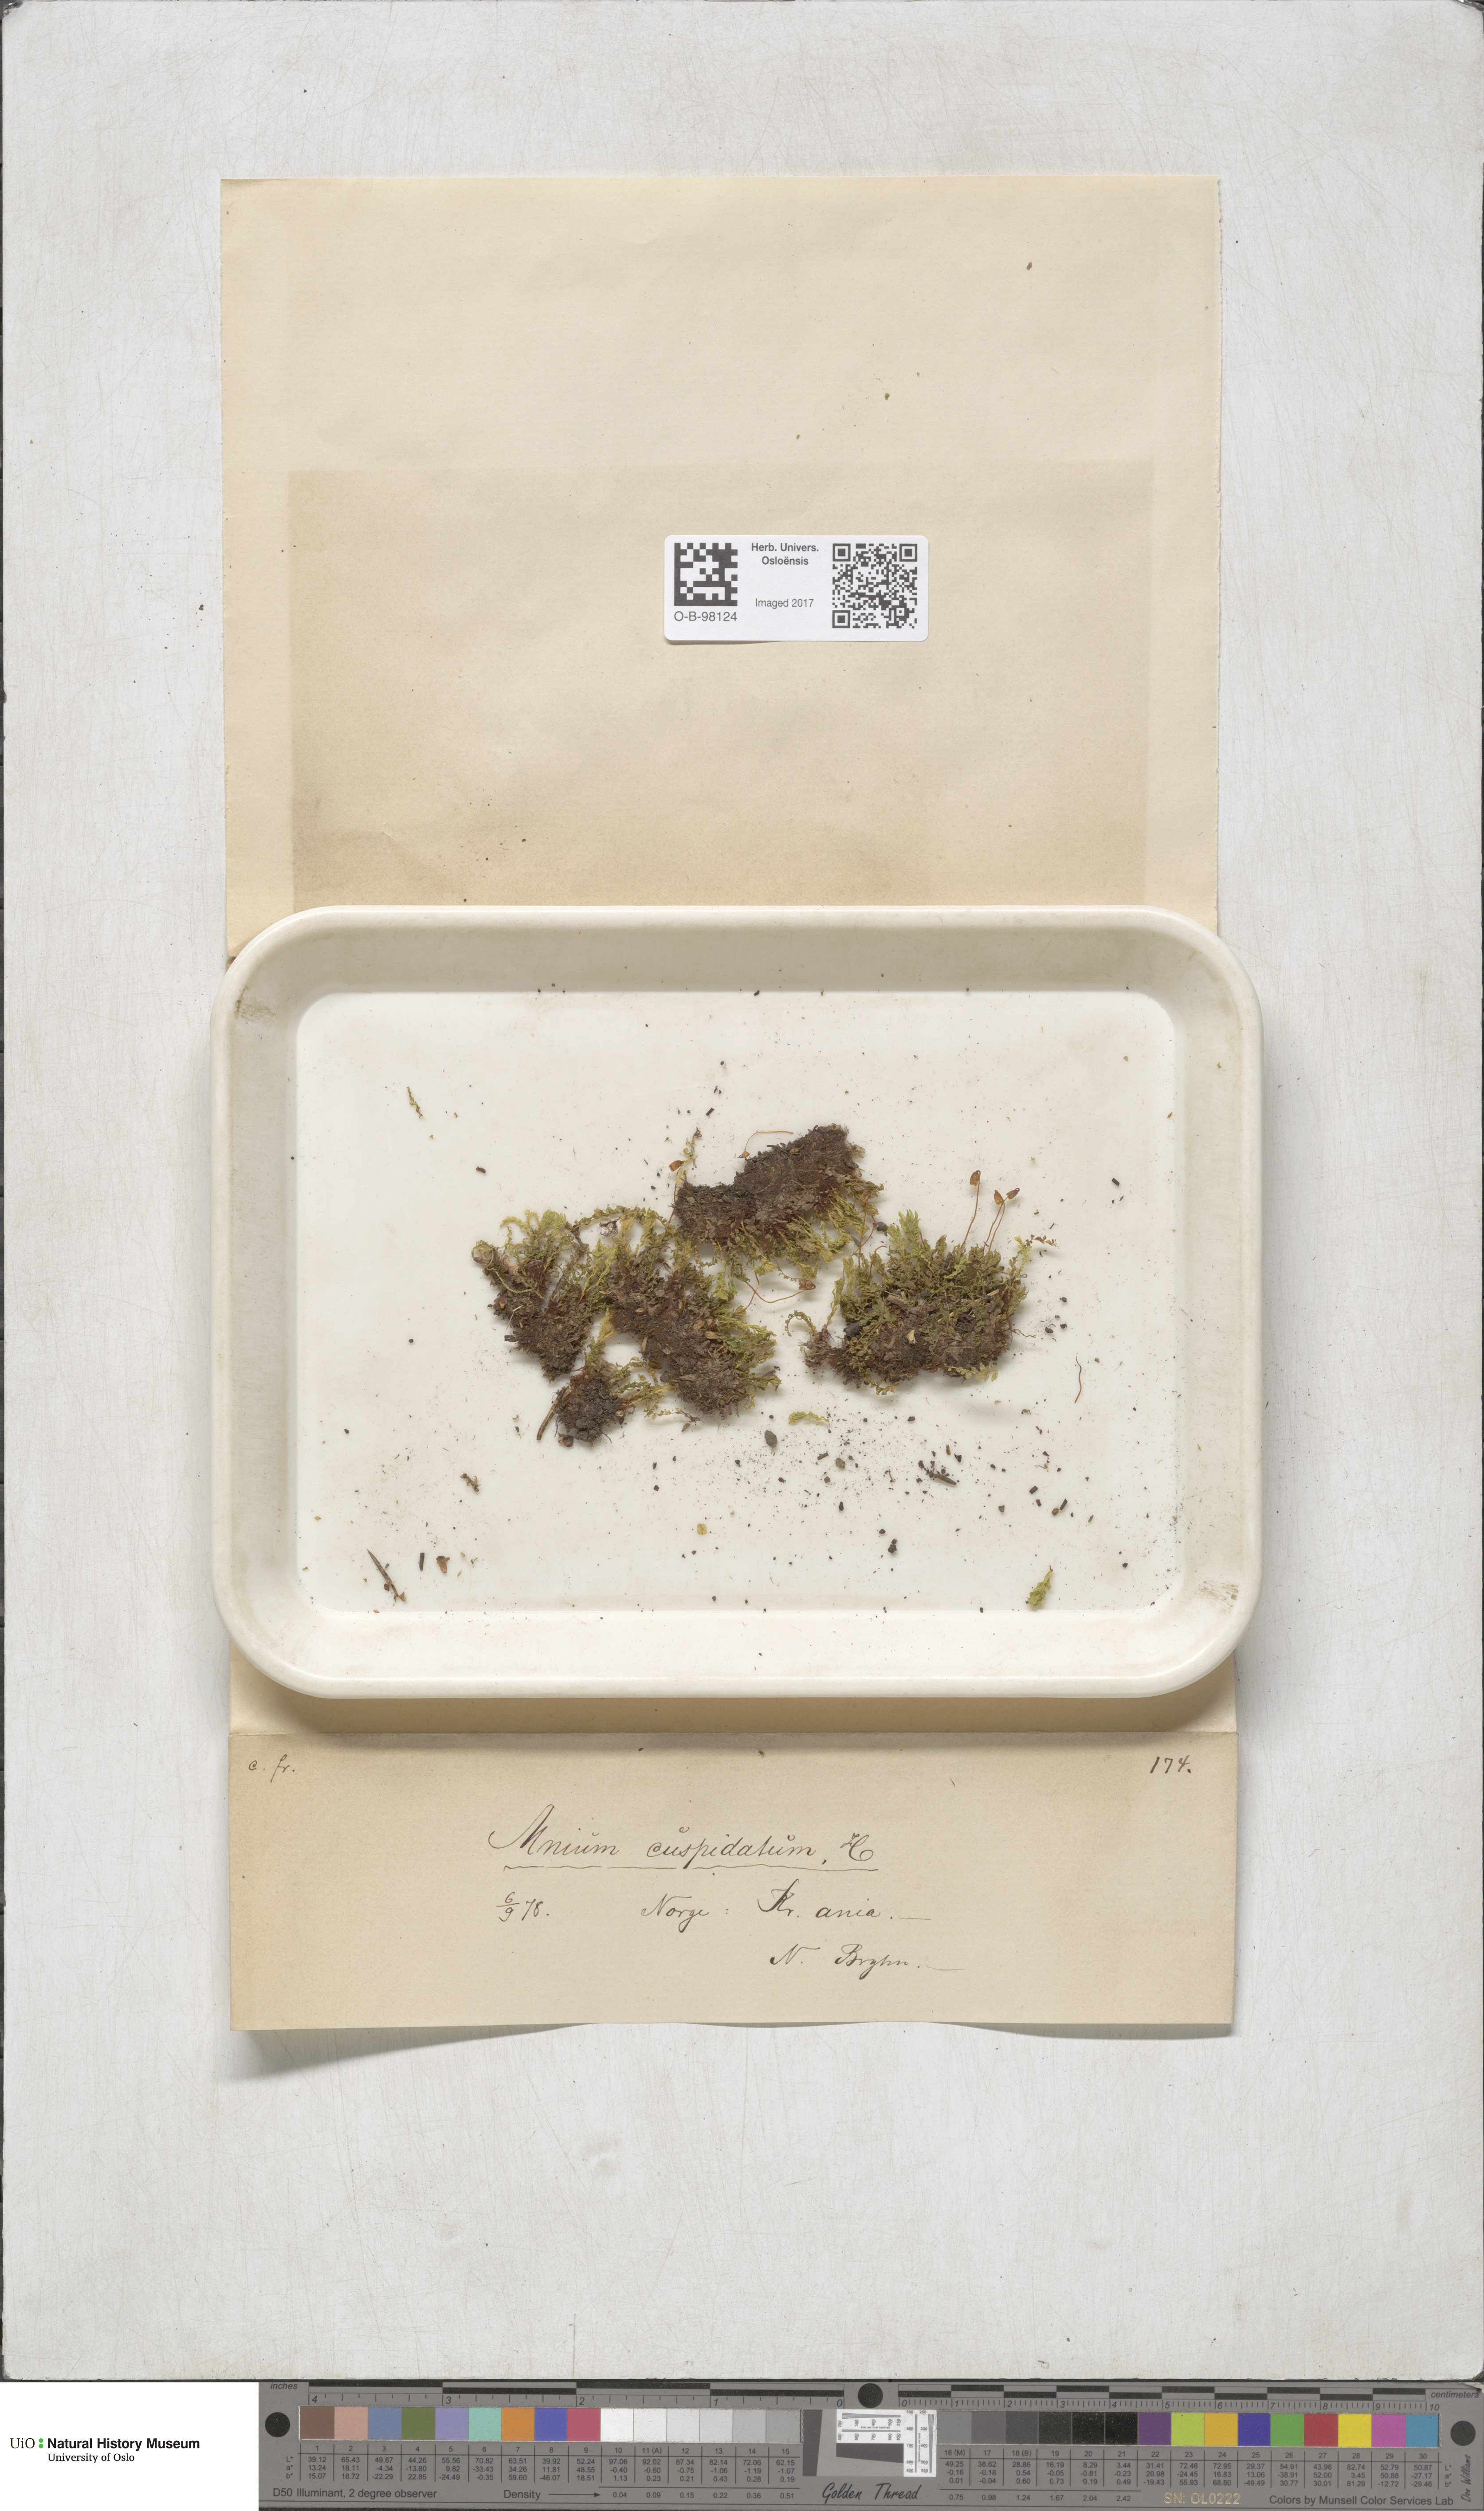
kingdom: Plantae
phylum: Bryophyta
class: Bryopsida
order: Bryales
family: Mniaceae
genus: Plagiomnium
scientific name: Plagiomnium cuspidatum
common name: Woodsy leafy moss
